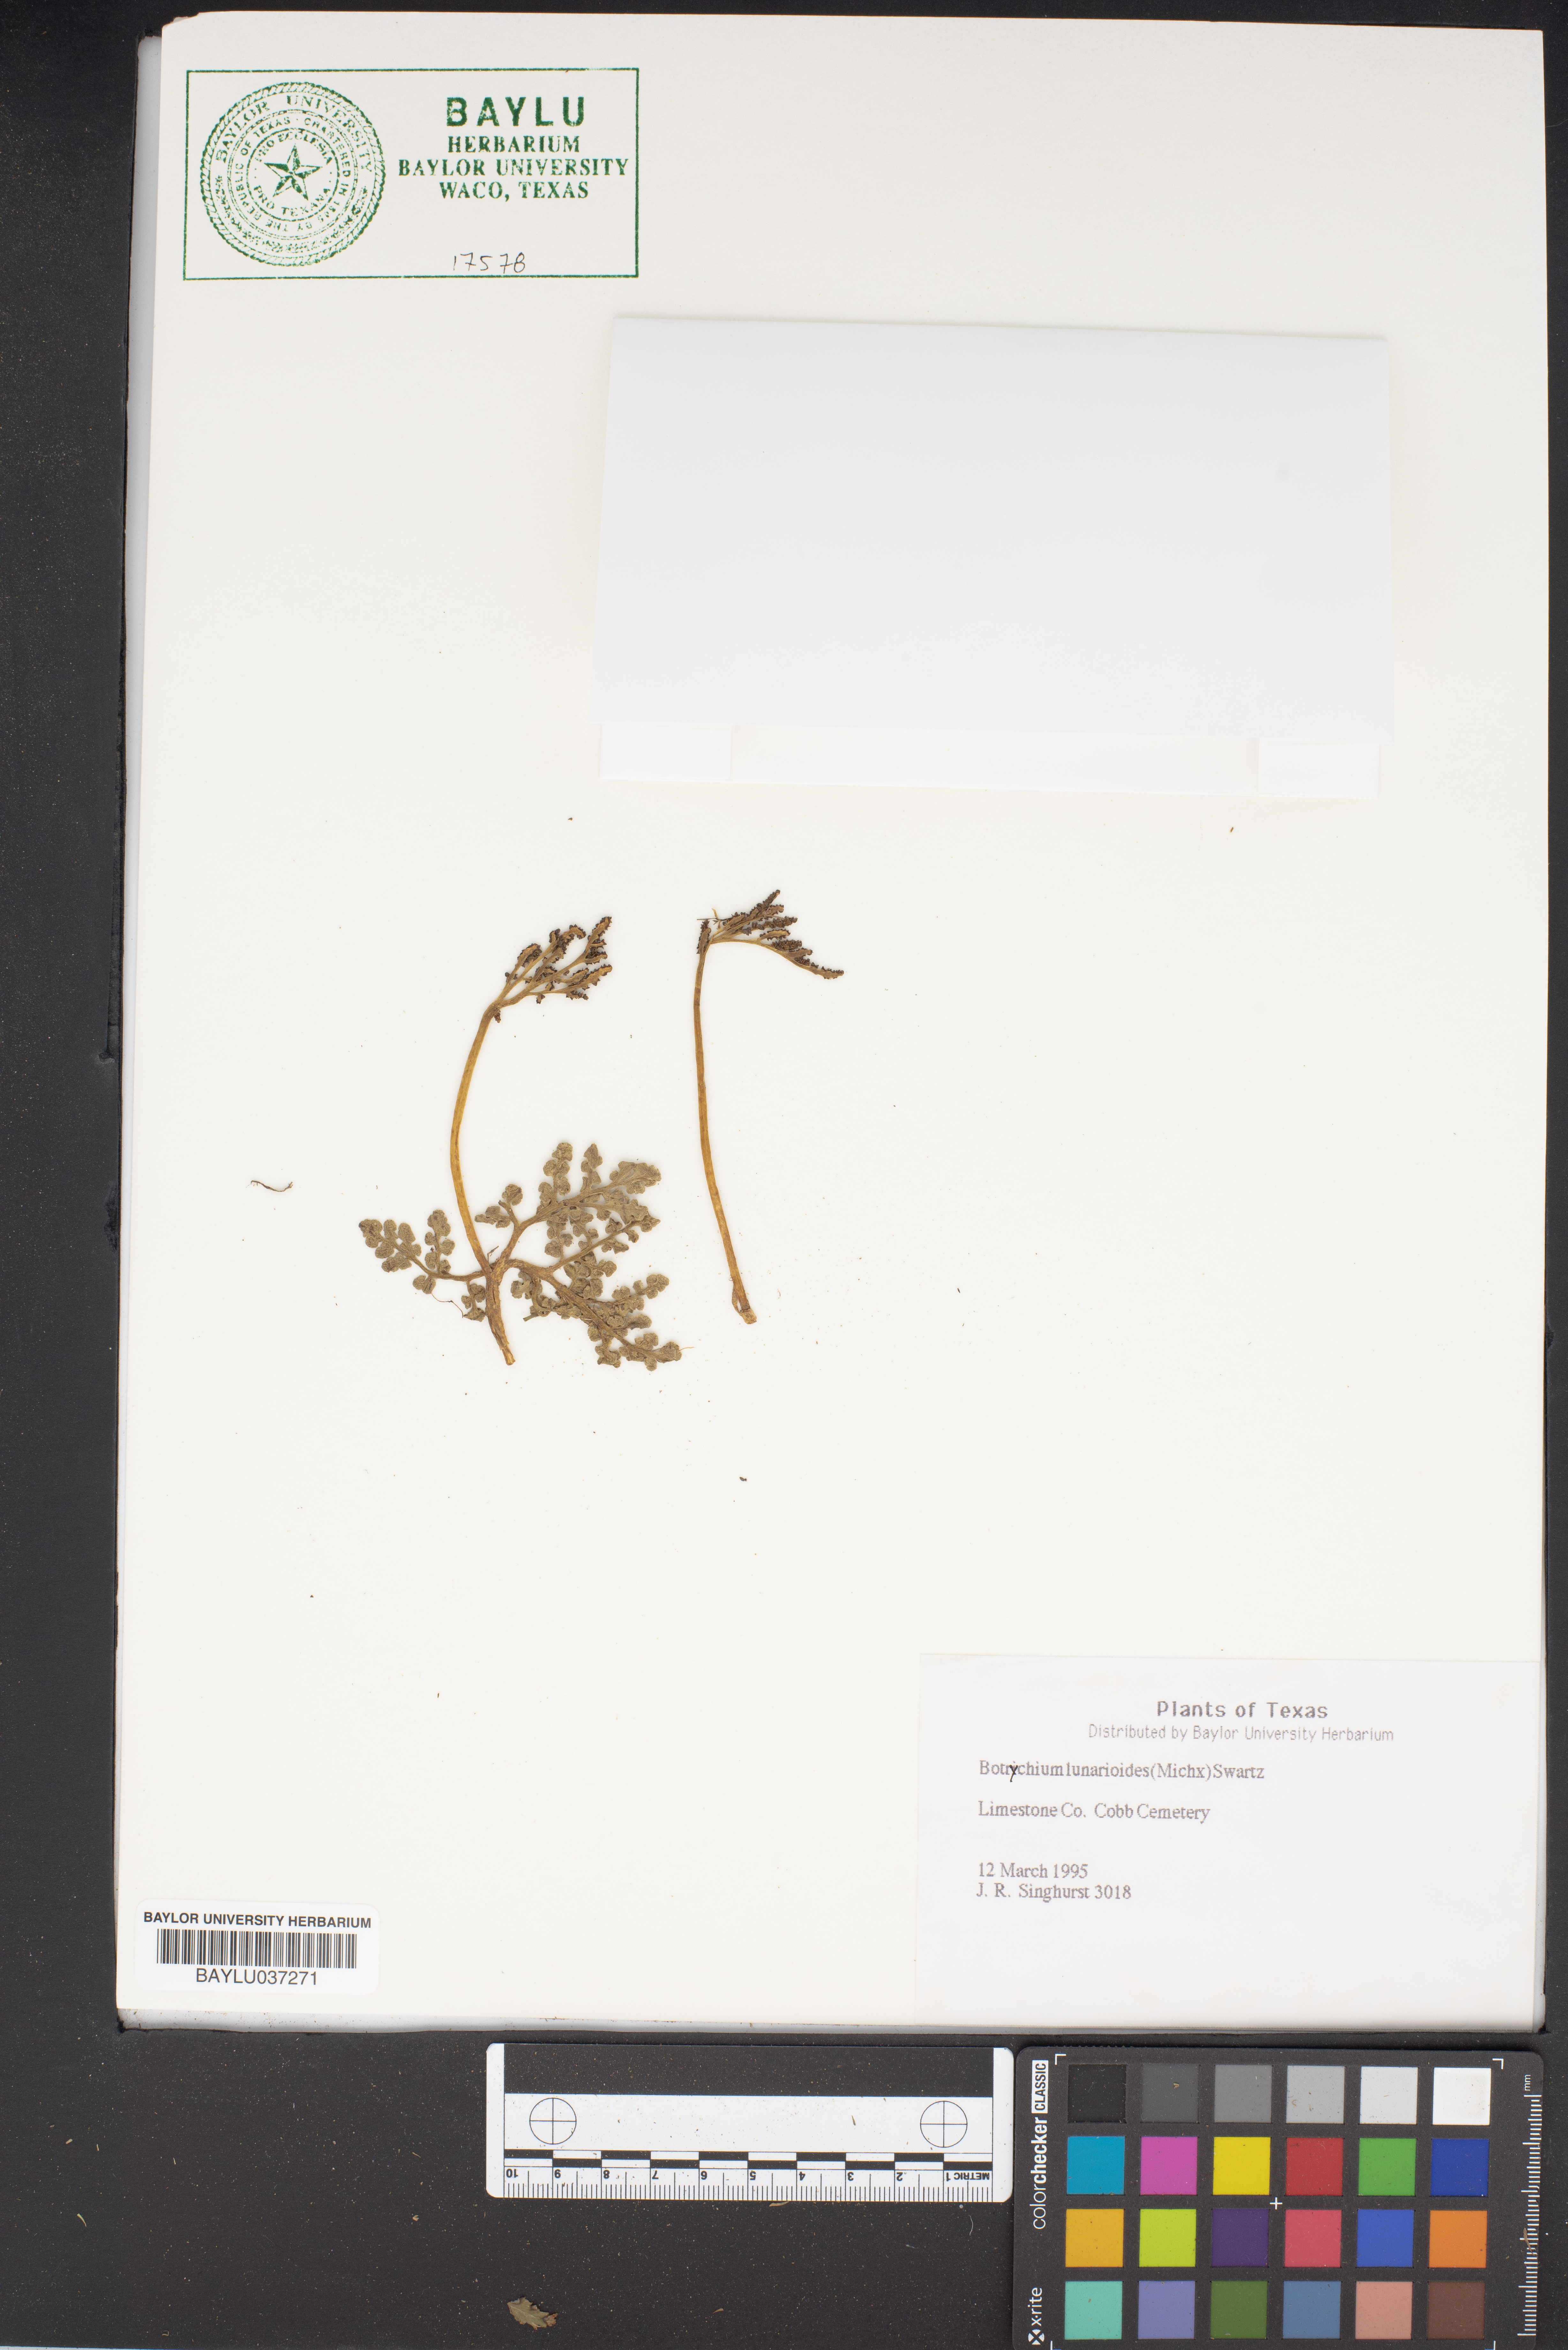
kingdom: Plantae
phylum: Tracheophyta
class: Polypodiopsida
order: Ophioglossales
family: Ophioglossaceae
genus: Sceptridium
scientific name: Sceptridium lunarioides
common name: Prostrate grapefern
